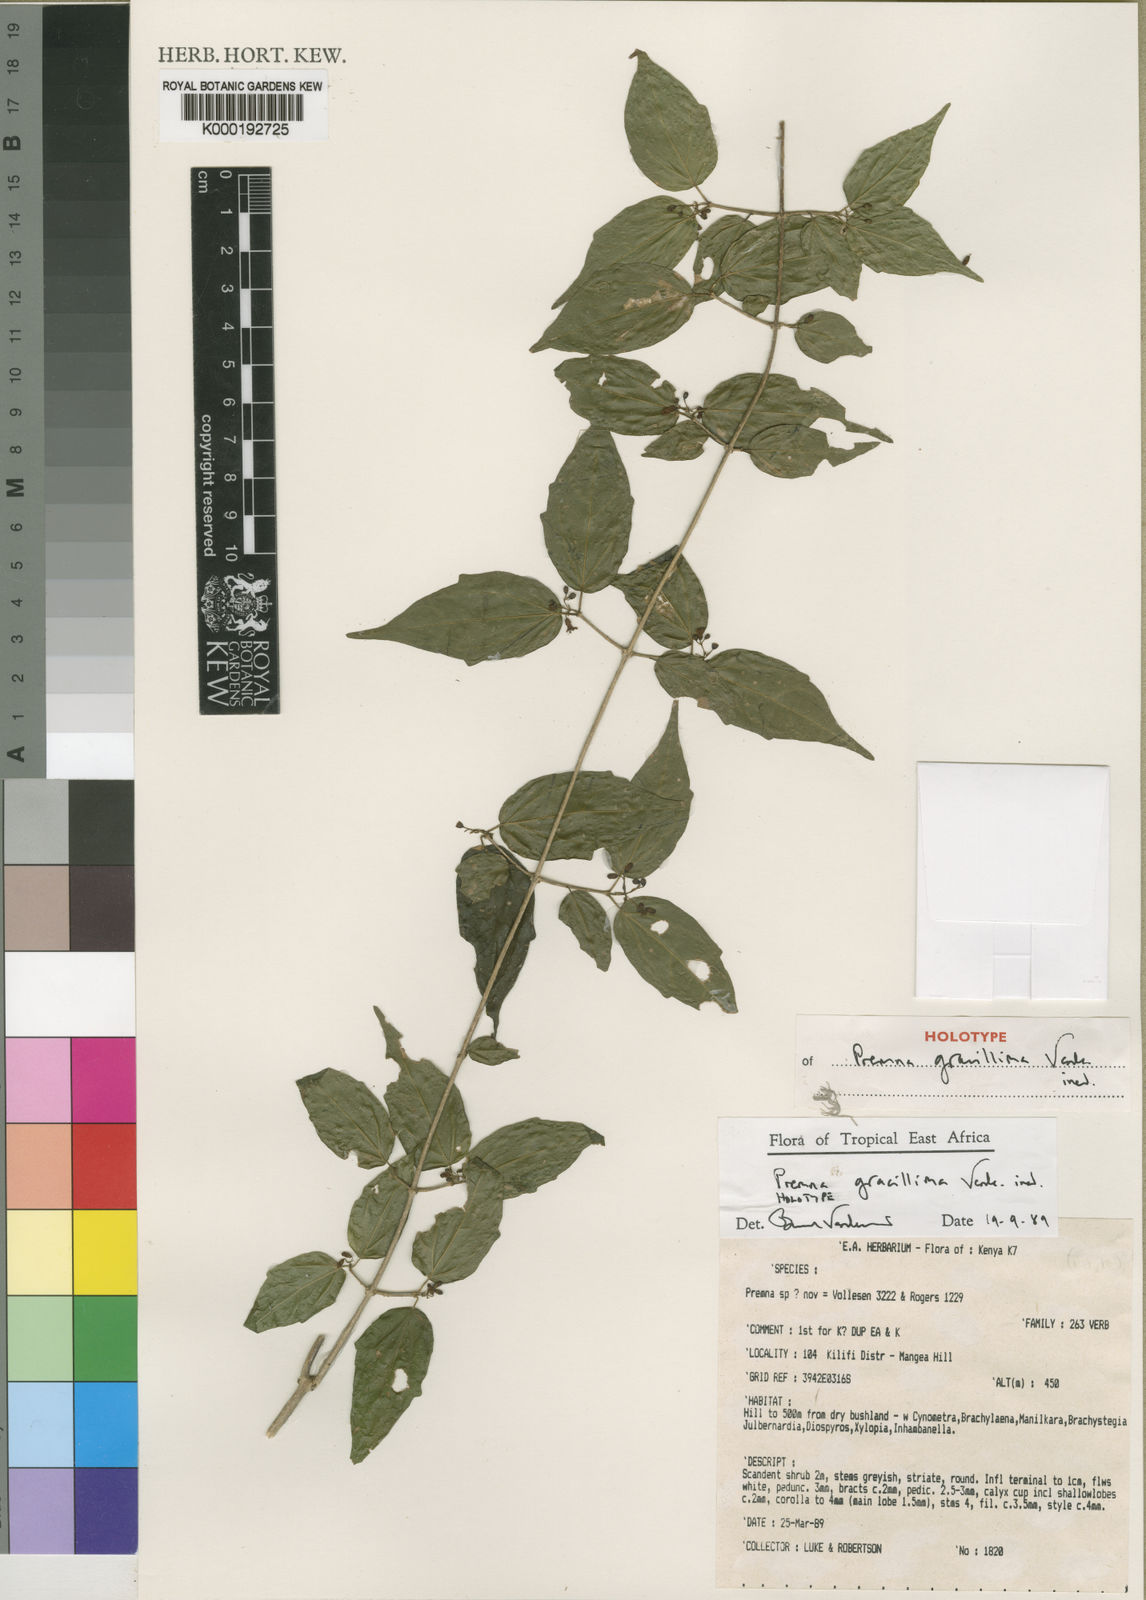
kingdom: Plantae
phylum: Tracheophyta
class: Magnoliopsida
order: Lamiales
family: Lamiaceae
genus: Premna
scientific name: Premna gracillima
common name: Small-leaved skunkbush
